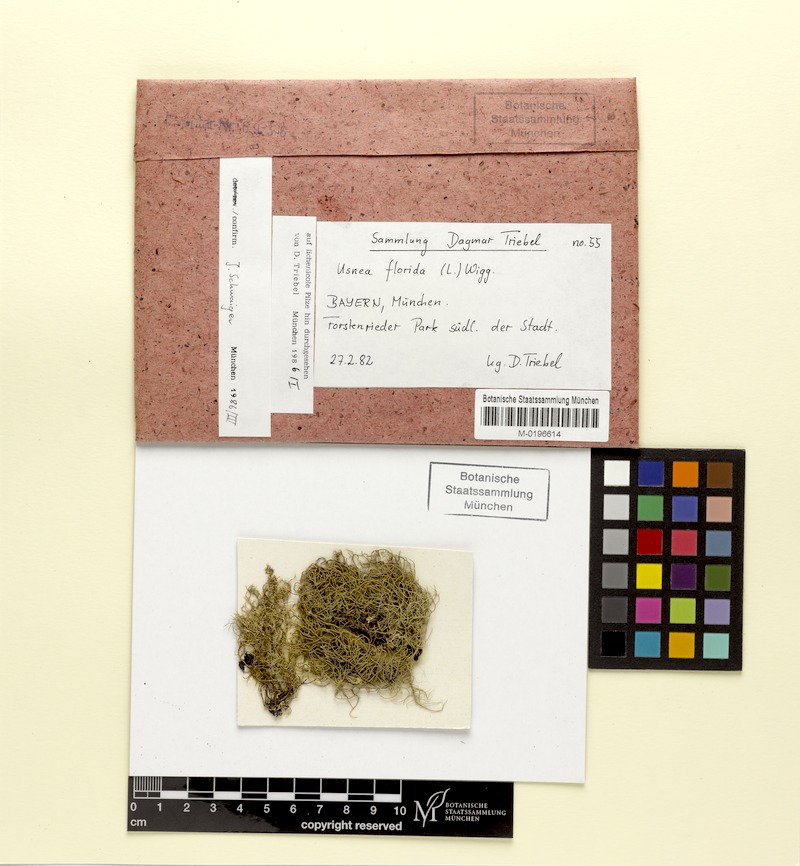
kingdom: Fungi
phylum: Ascomycota
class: Lecanoromycetes
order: Lecanorales
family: Parmeliaceae
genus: Usnea
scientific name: Usnea florida
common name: Witches' whiskers lichen
